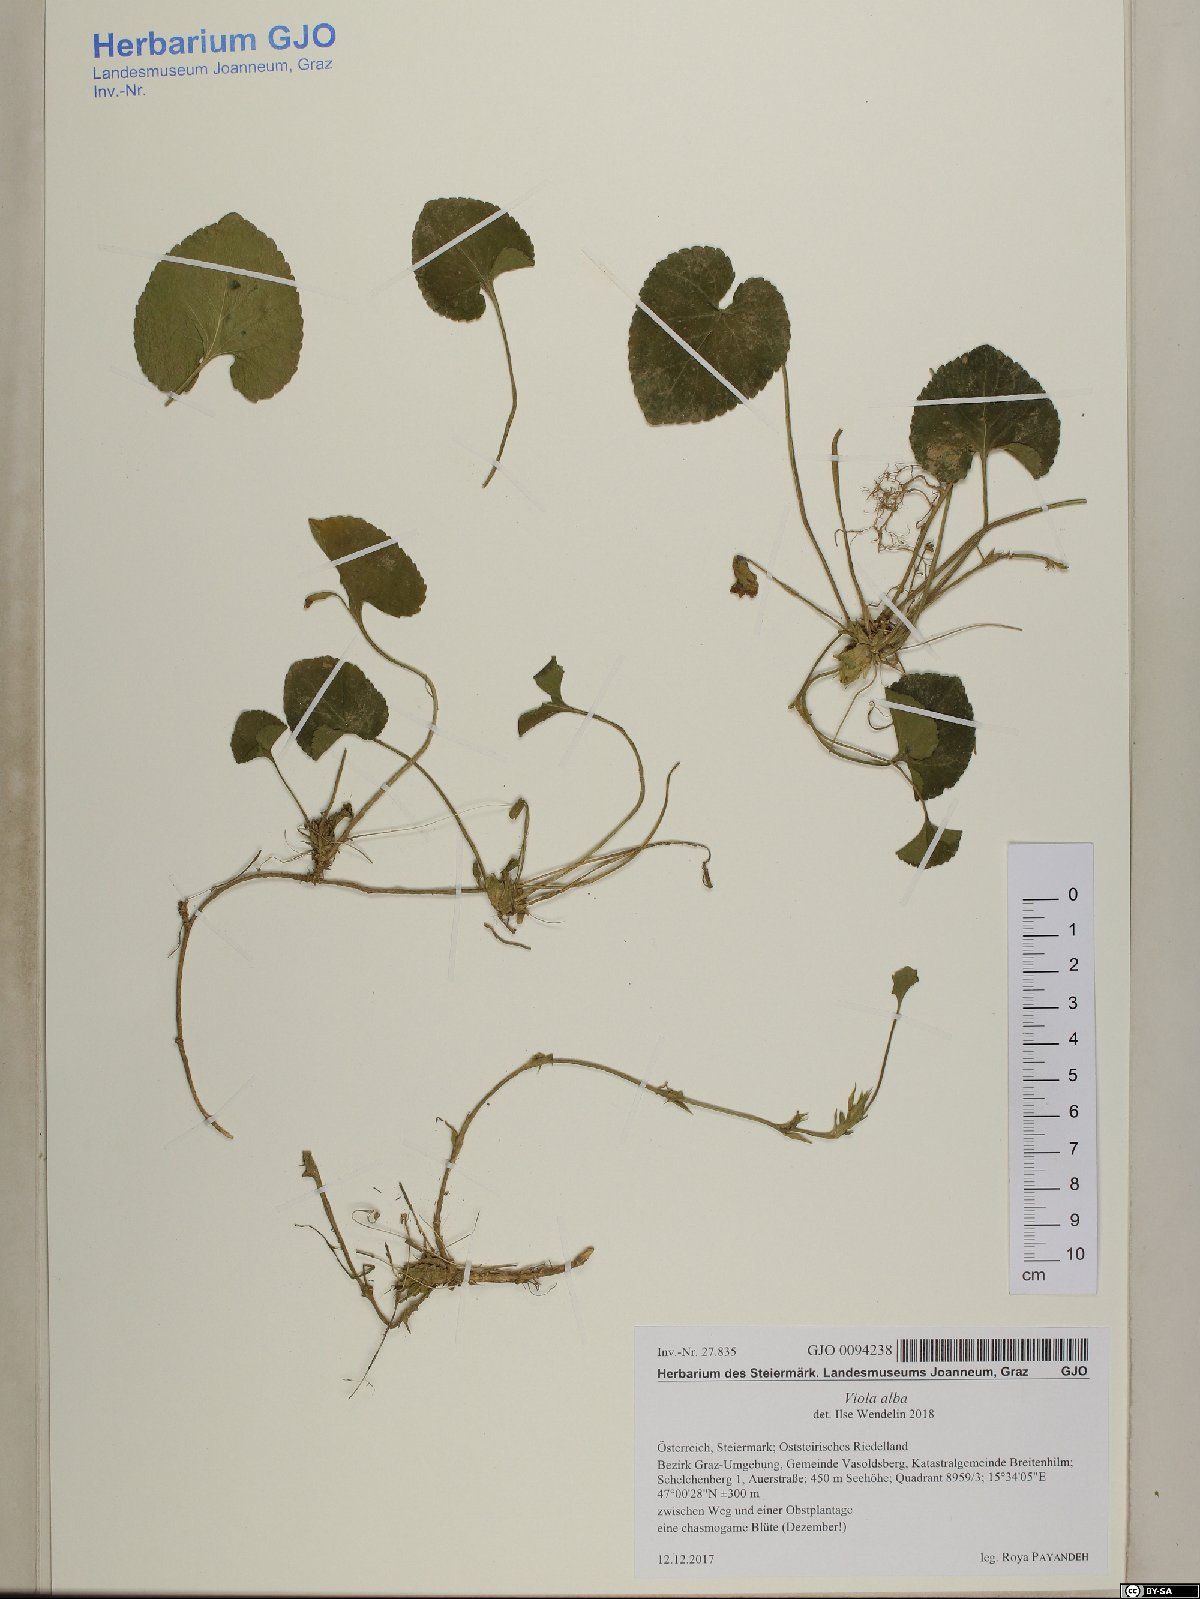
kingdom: Plantae
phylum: Tracheophyta
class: Magnoliopsida
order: Malpighiales
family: Violaceae
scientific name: Violaceae
